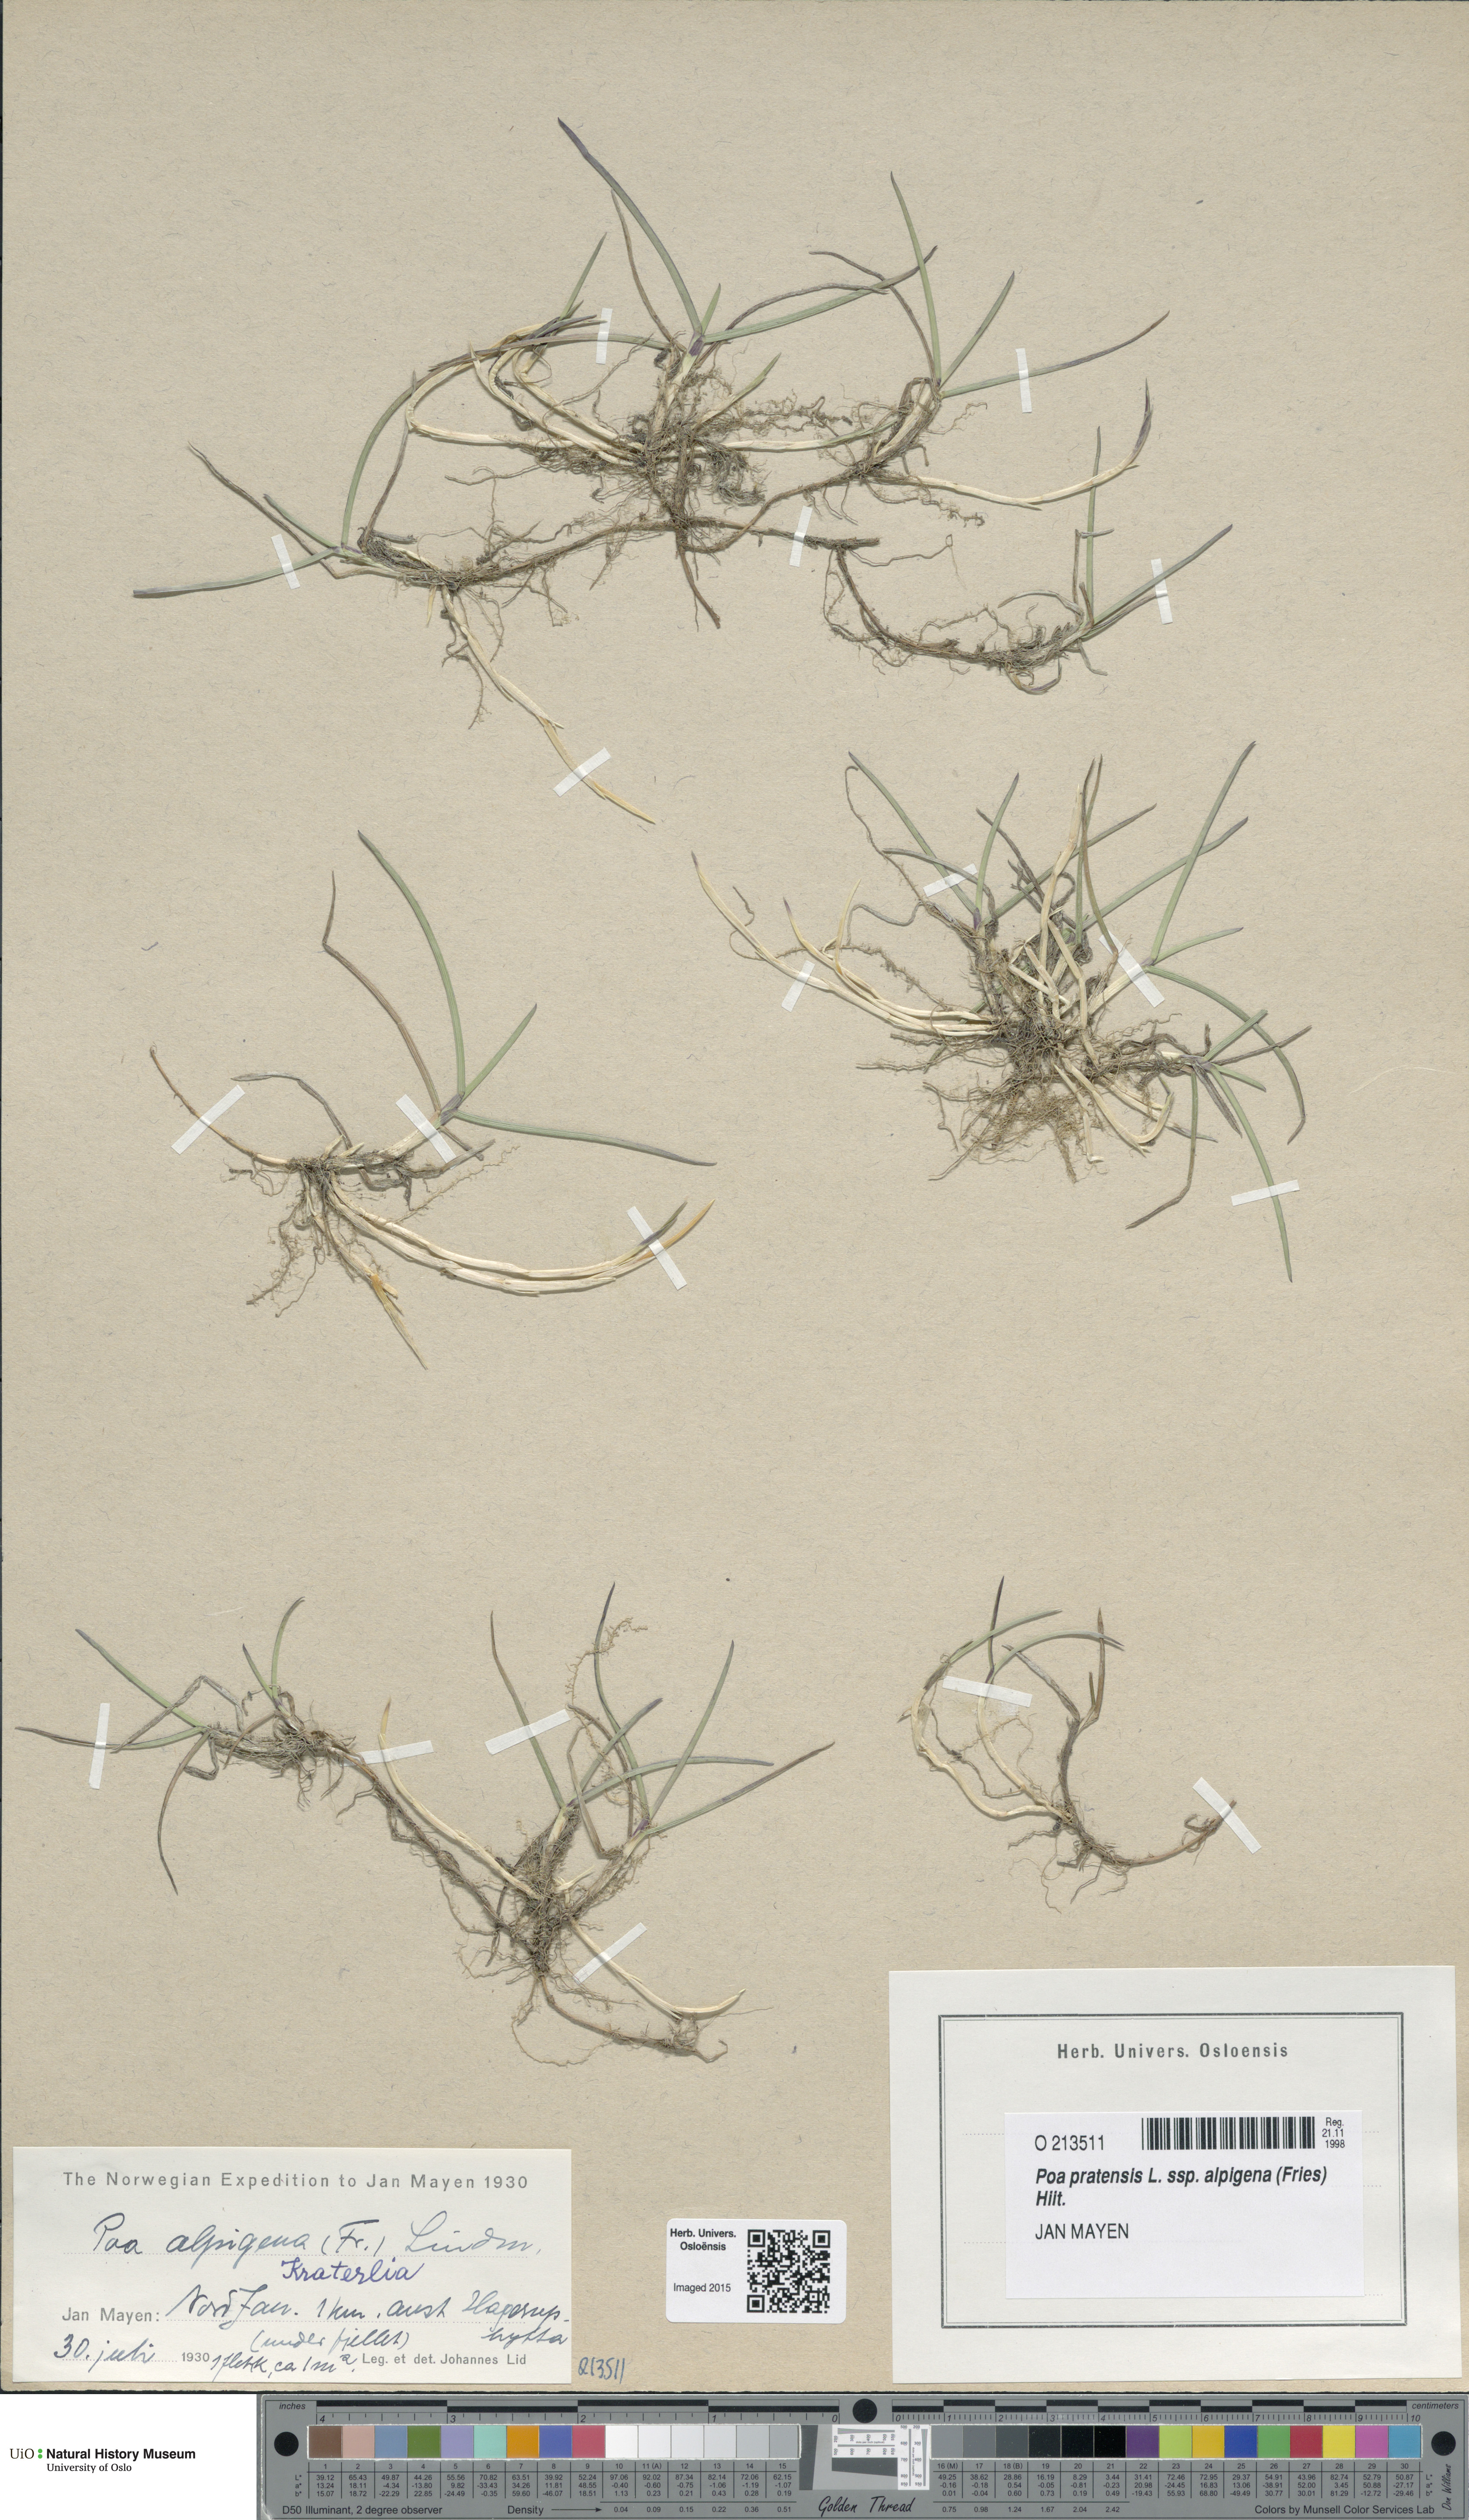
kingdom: Plantae
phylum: Tracheophyta
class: Liliopsida
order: Poales
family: Poaceae
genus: Poa
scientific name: Poa alpigena
